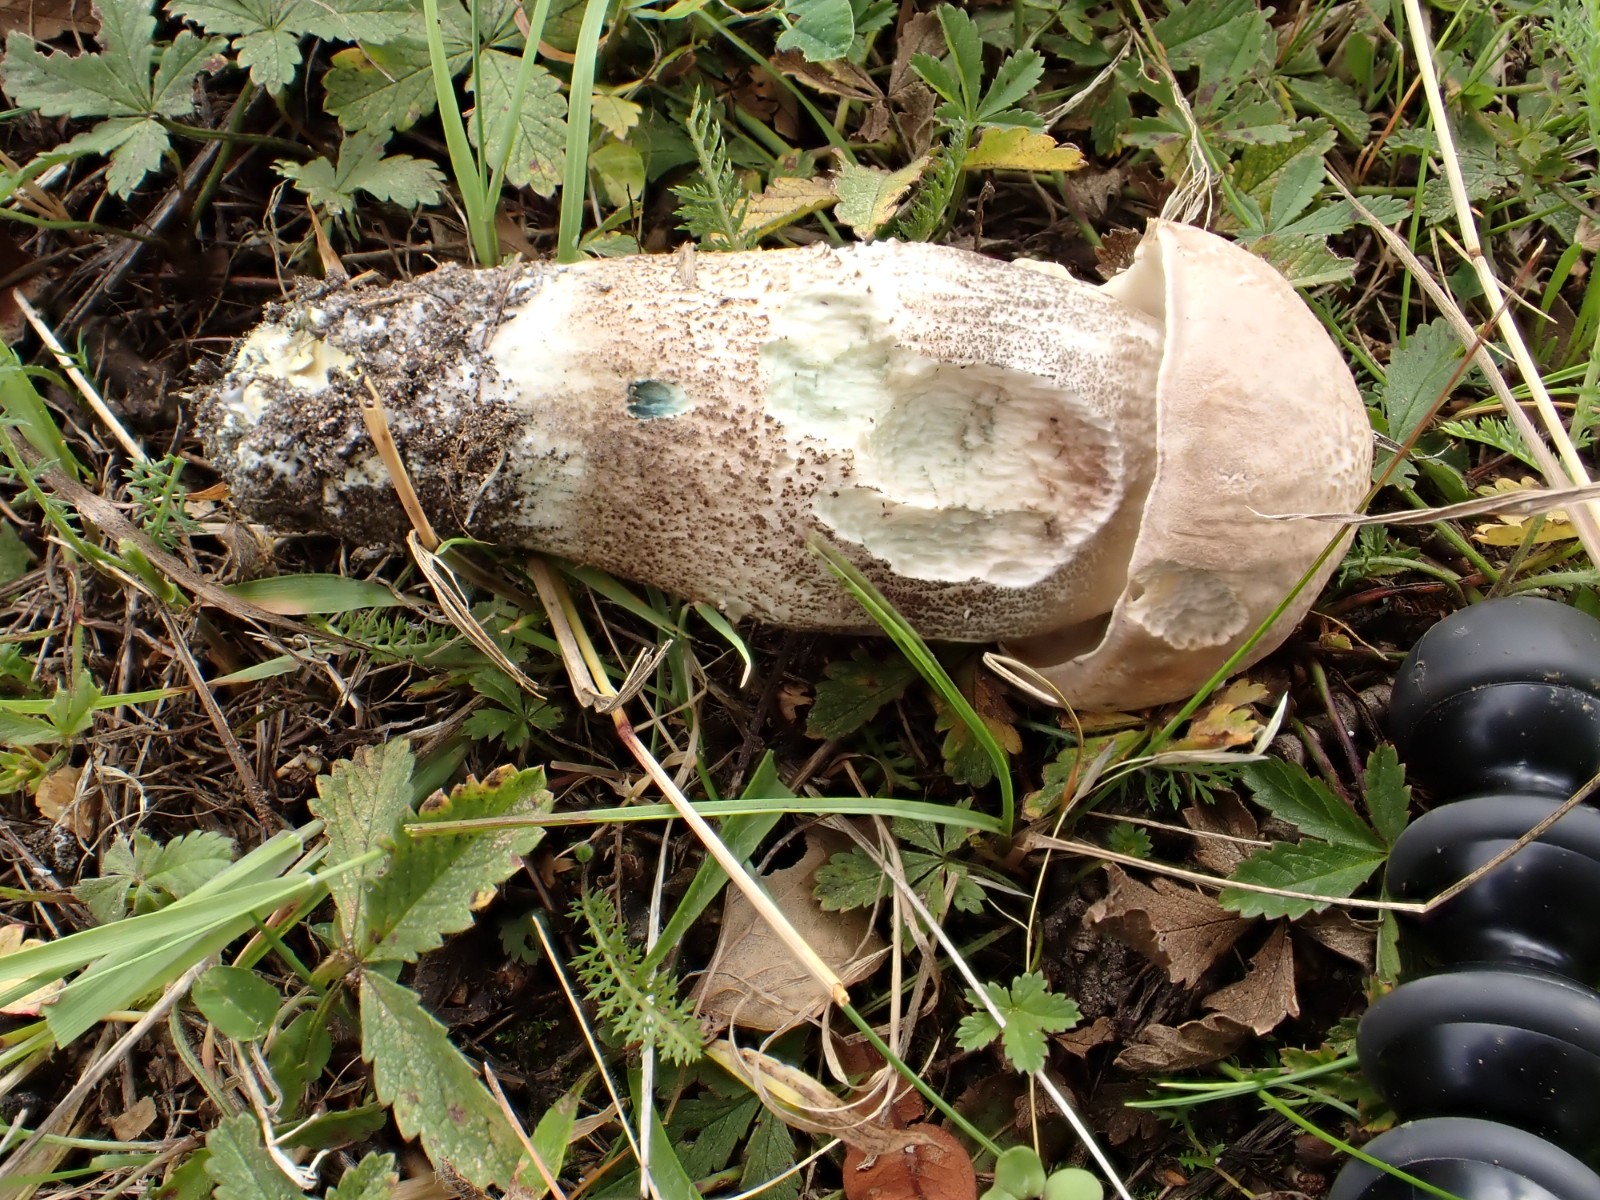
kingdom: Fungi
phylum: Basidiomycota
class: Agaricomycetes
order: Boletales
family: Boletaceae
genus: Leccinum
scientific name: Leccinum duriusculum
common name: poppel-skælrørhat
